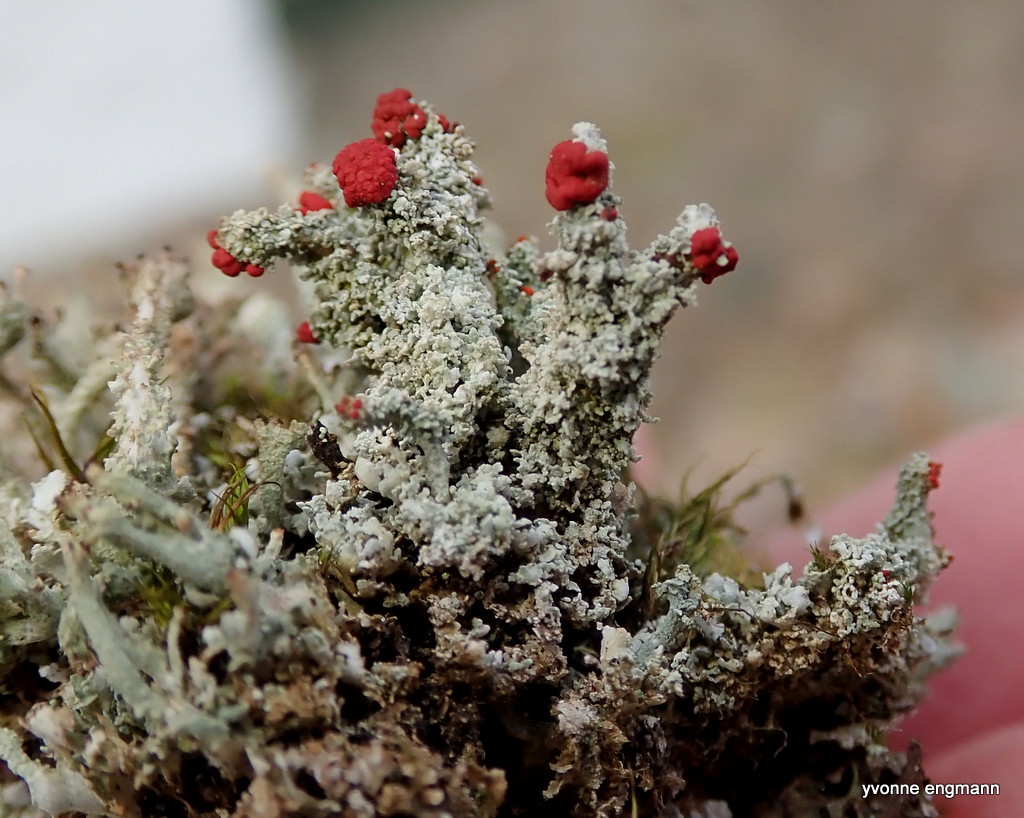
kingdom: Fungi
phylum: Ascomycota
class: Lecanoromycetes
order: Lecanorales
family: Cladoniaceae
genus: Cladonia
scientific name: Cladonia floerkeana
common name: lakrød bægerlav
